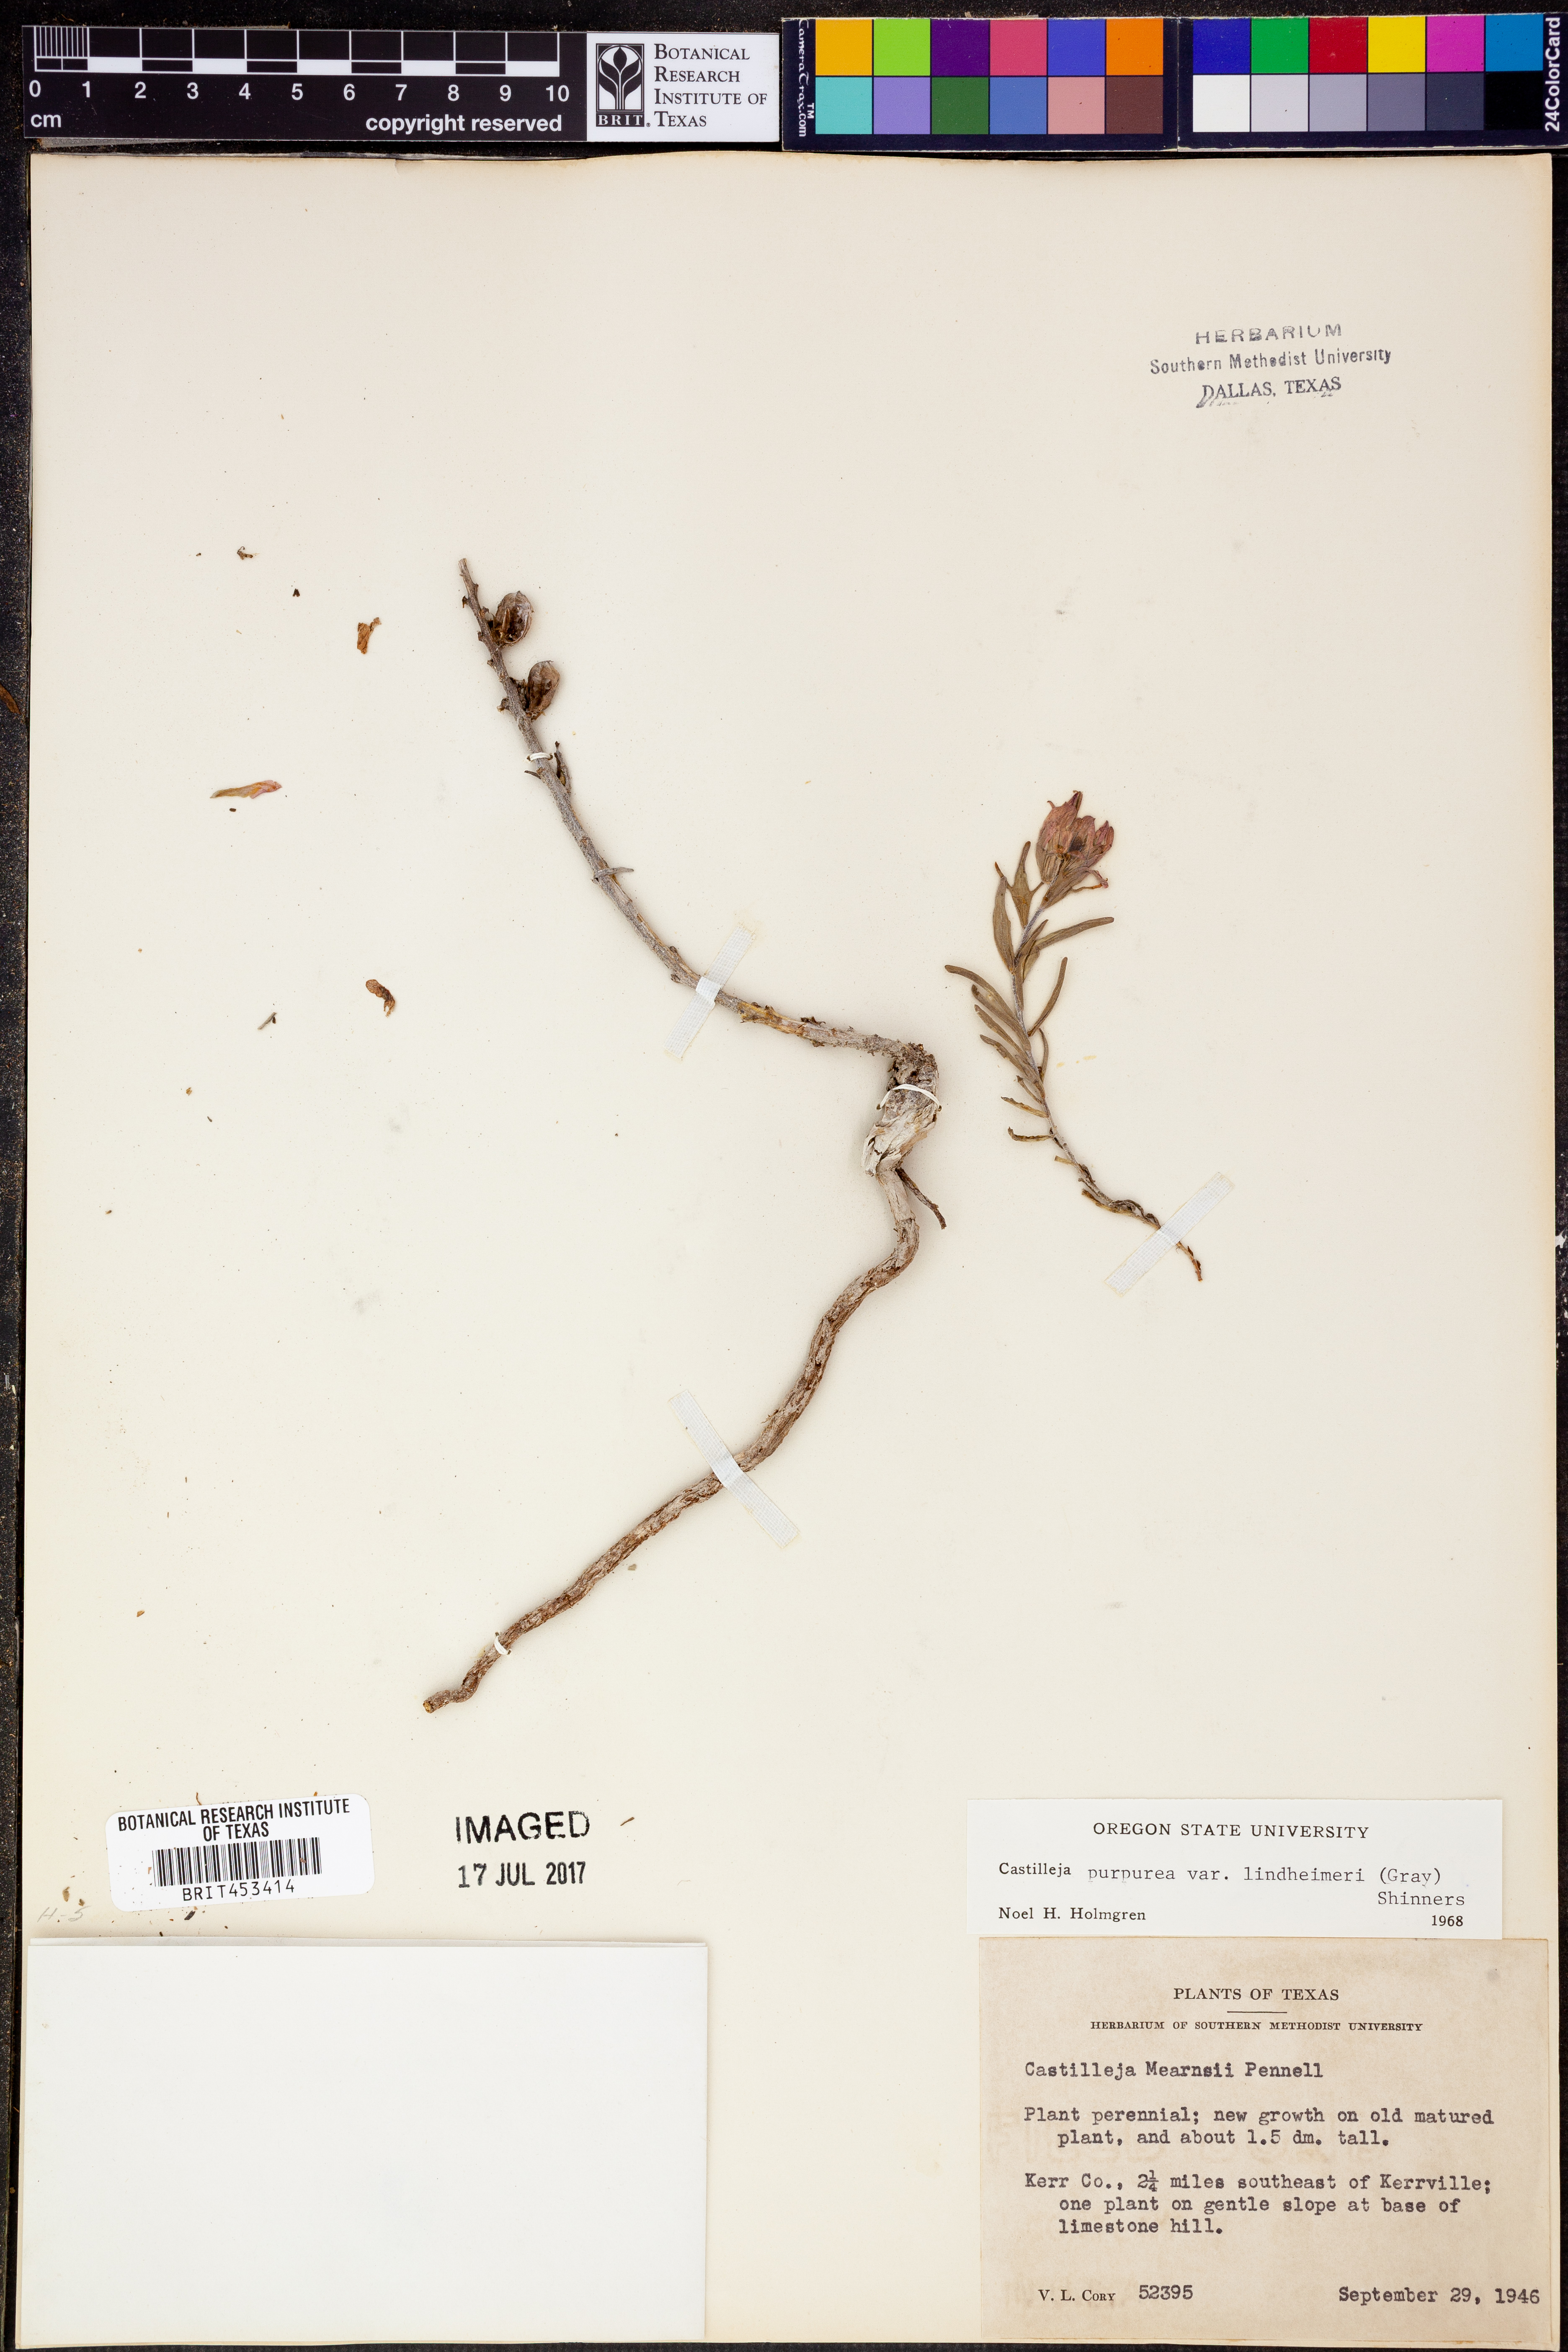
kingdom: Plantae
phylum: Tracheophyta
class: Magnoliopsida
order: Lamiales
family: Orobanchaceae
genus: Castilleja
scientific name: Castilleja purpurea
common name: Plains paintbrush
